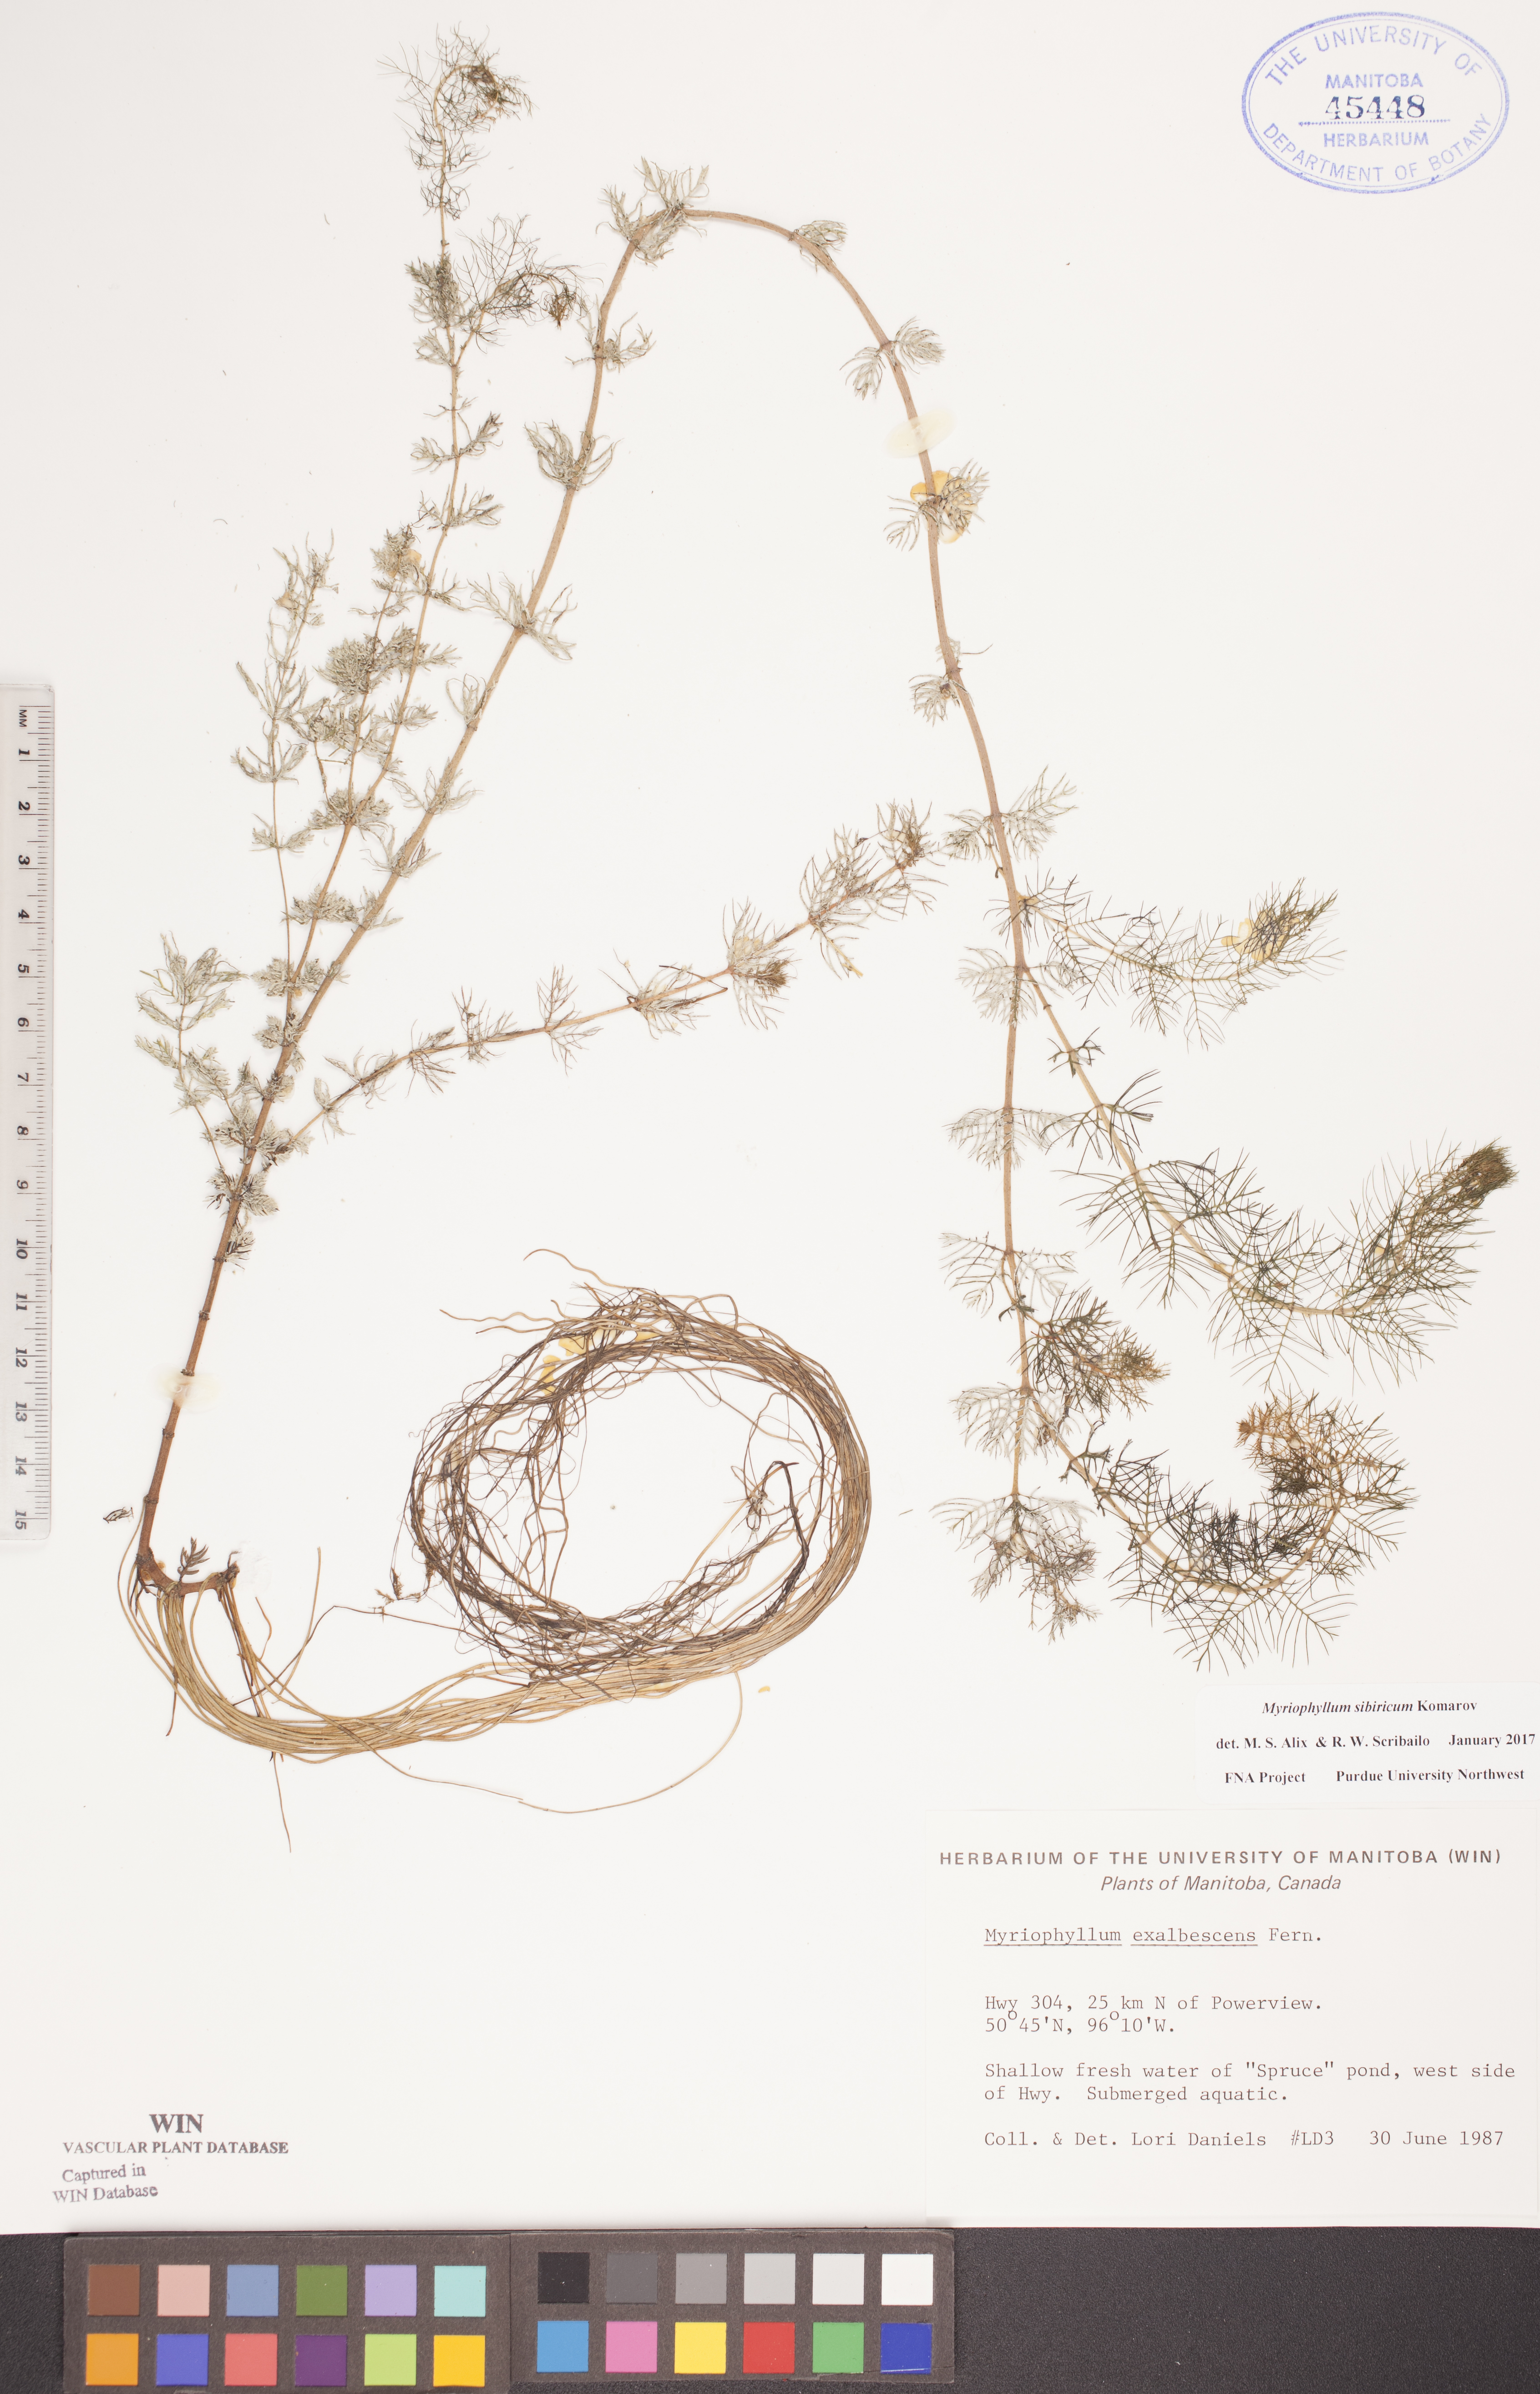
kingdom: Plantae
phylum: Tracheophyta
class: Magnoliopsida
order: Saxifragales
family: Haloragaceae
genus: Myriophyllum
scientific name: Myriophyllum sibiricum
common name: Siberian water-milfoil
